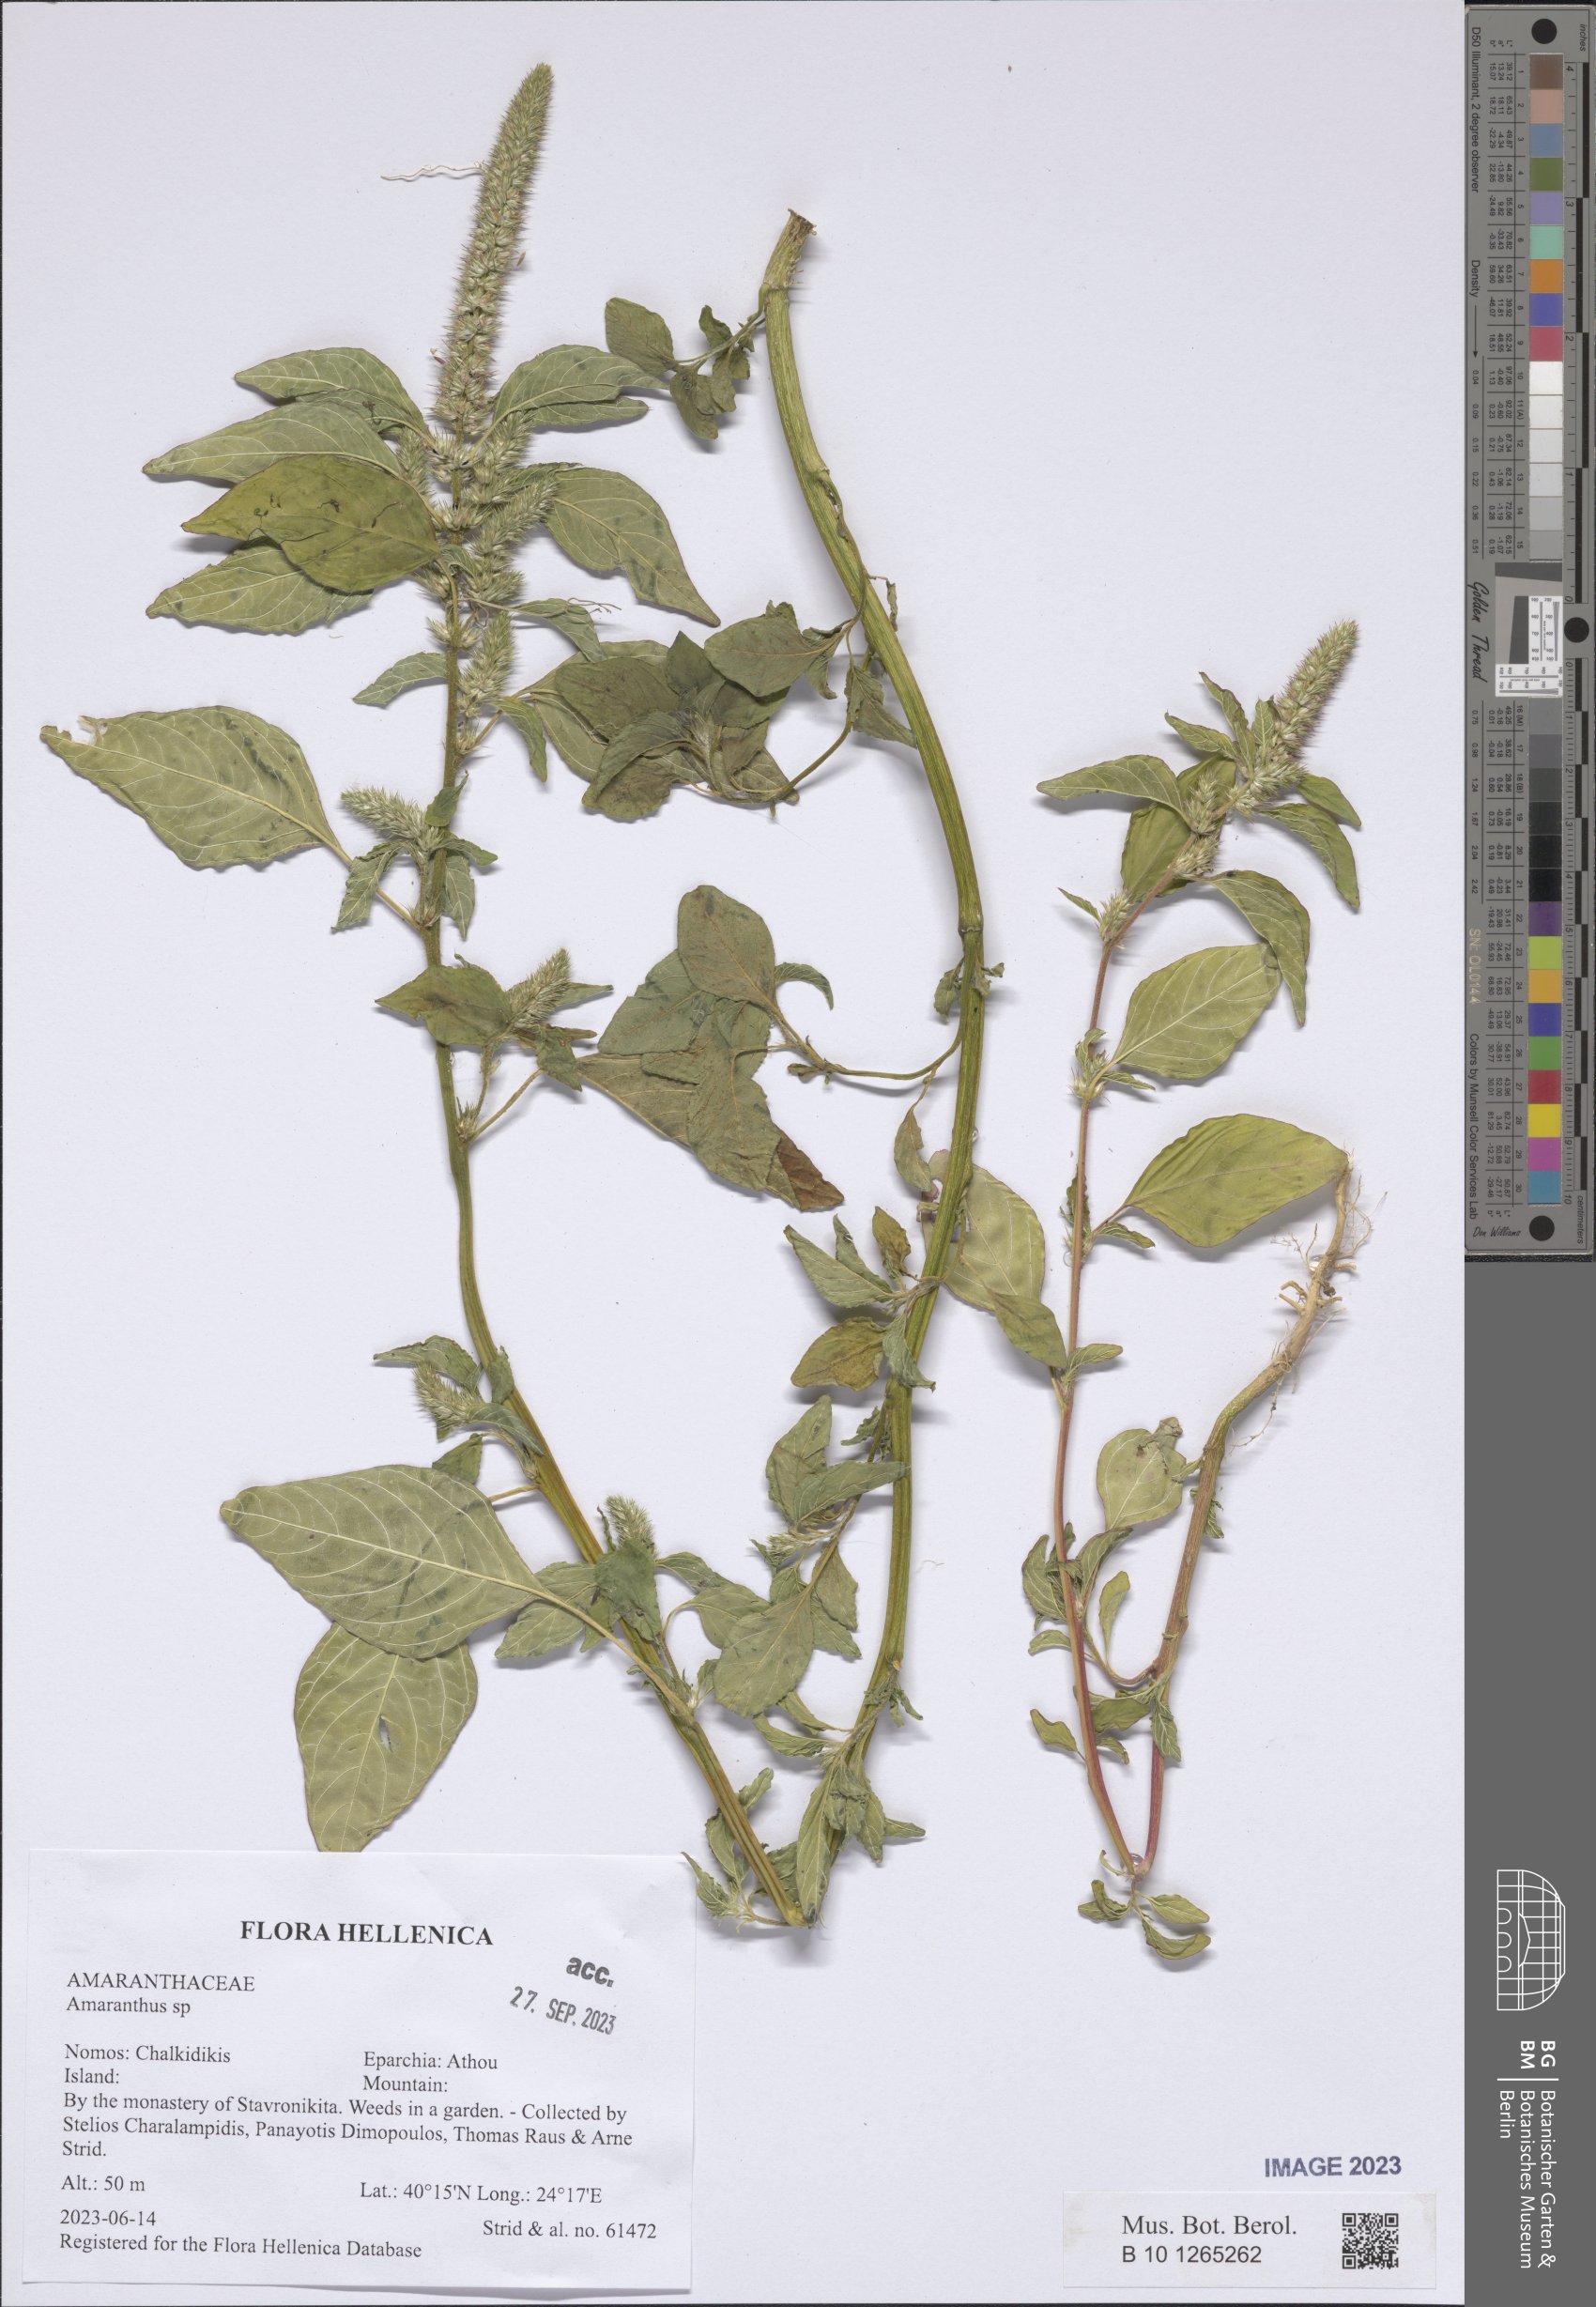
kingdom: Plantae
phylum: Tracheophyta
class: Magnoliopsida
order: Caryophyllales
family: Amaranthaceae
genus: Amaranthus
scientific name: Amaranthus
